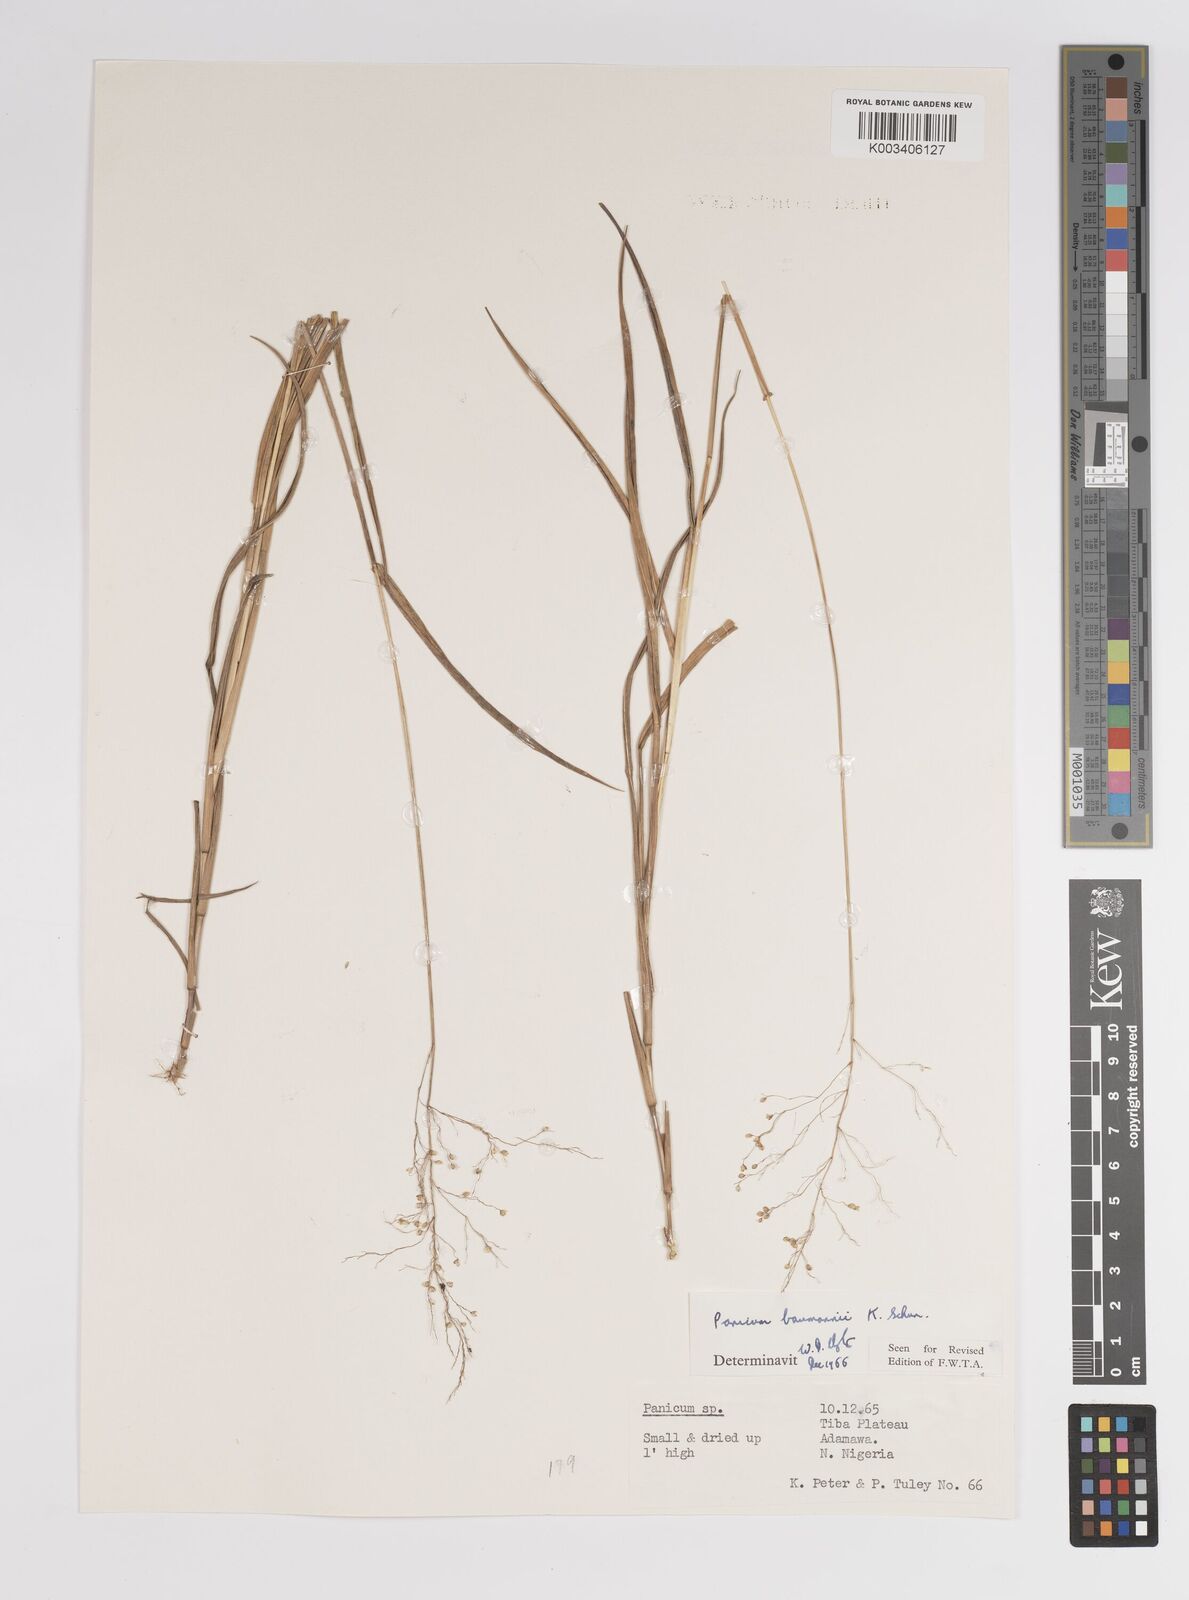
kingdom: Plantae
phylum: Tracheophyta
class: Liliopsida
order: Poales
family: Poaceae
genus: Trichanthecium
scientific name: Trichanthecium nervatum
